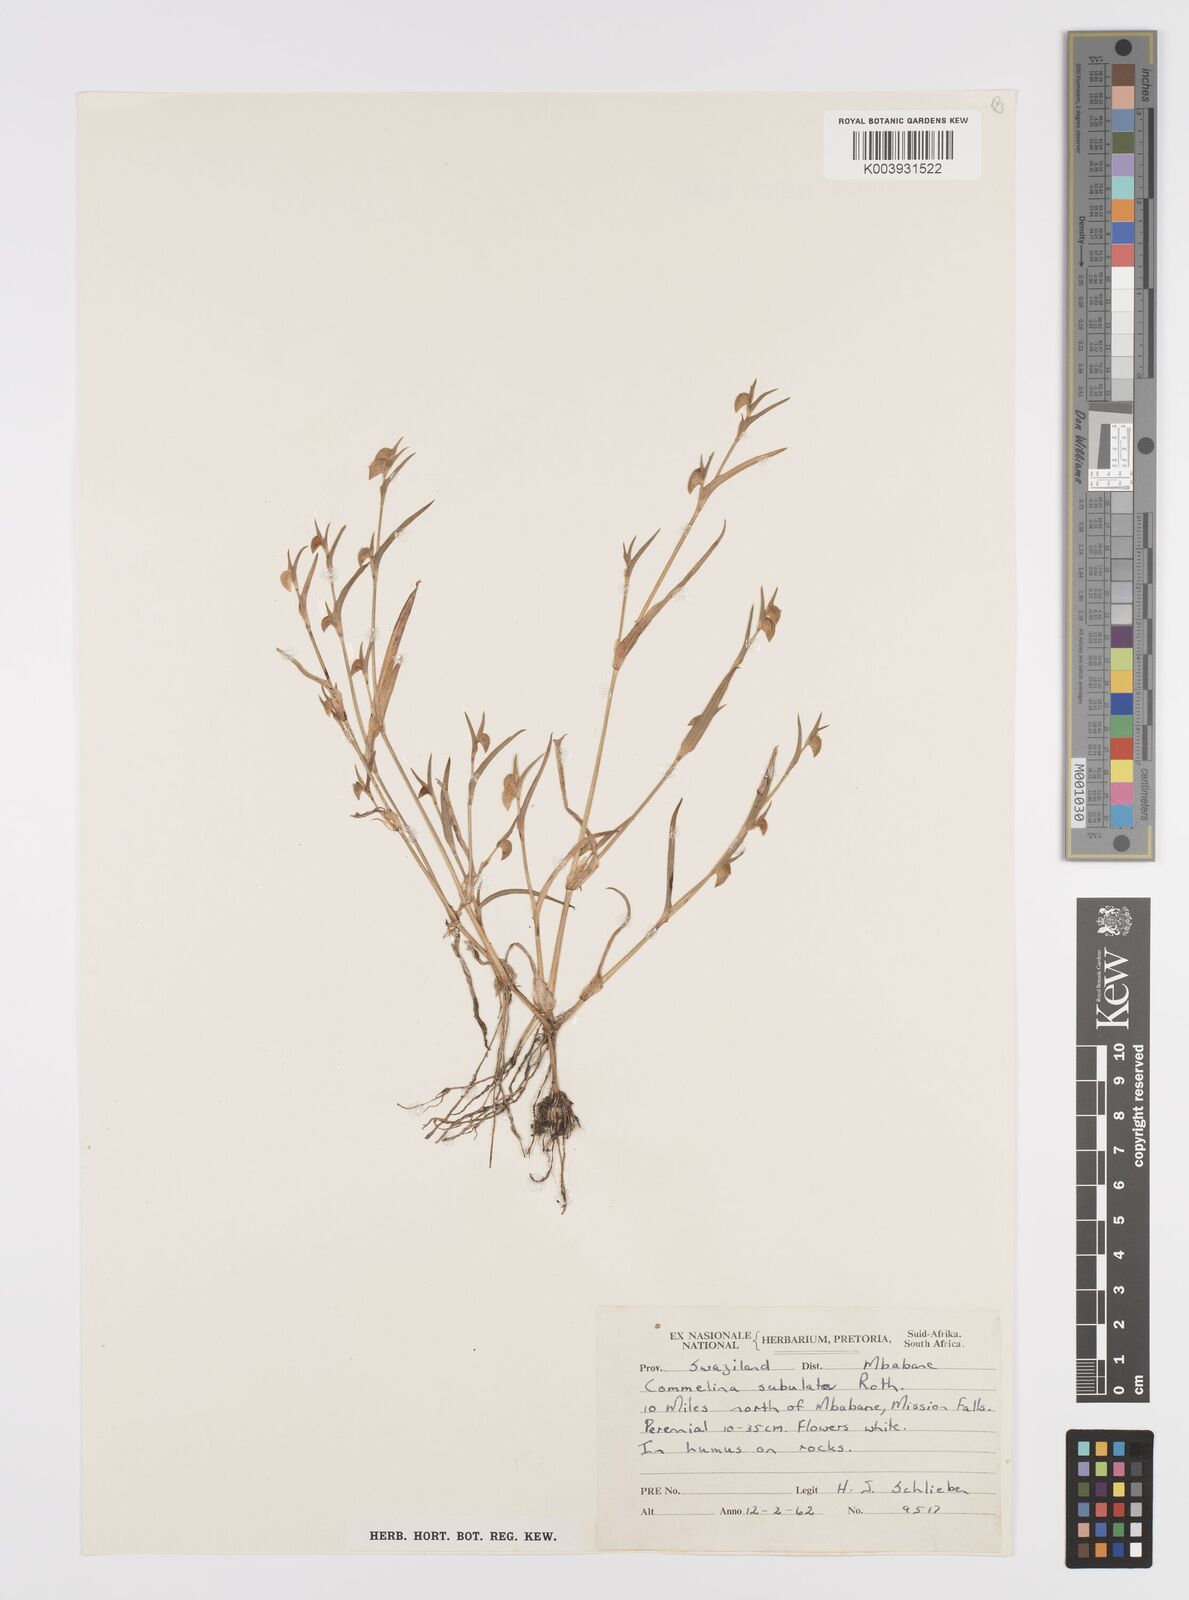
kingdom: Plantae
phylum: Tracheophyta
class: Liliopsida
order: Commelinales
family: Commelinaceae
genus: Commelina
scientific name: Commelina subulata
